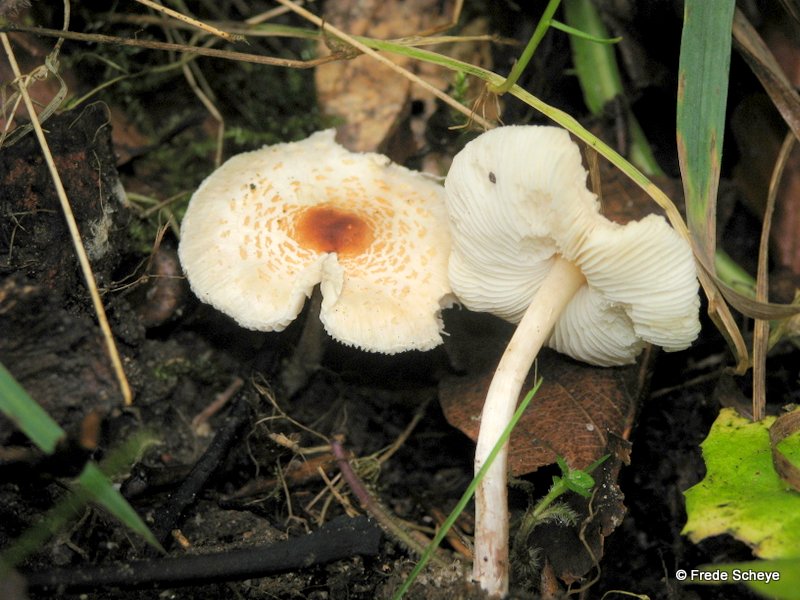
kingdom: Fungi
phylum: Basidiomycota
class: Agaricomycetes
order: Agaricales
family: Agaricaceae
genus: Lepiota
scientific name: Lepiota cristata
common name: stinkende parasolhat
